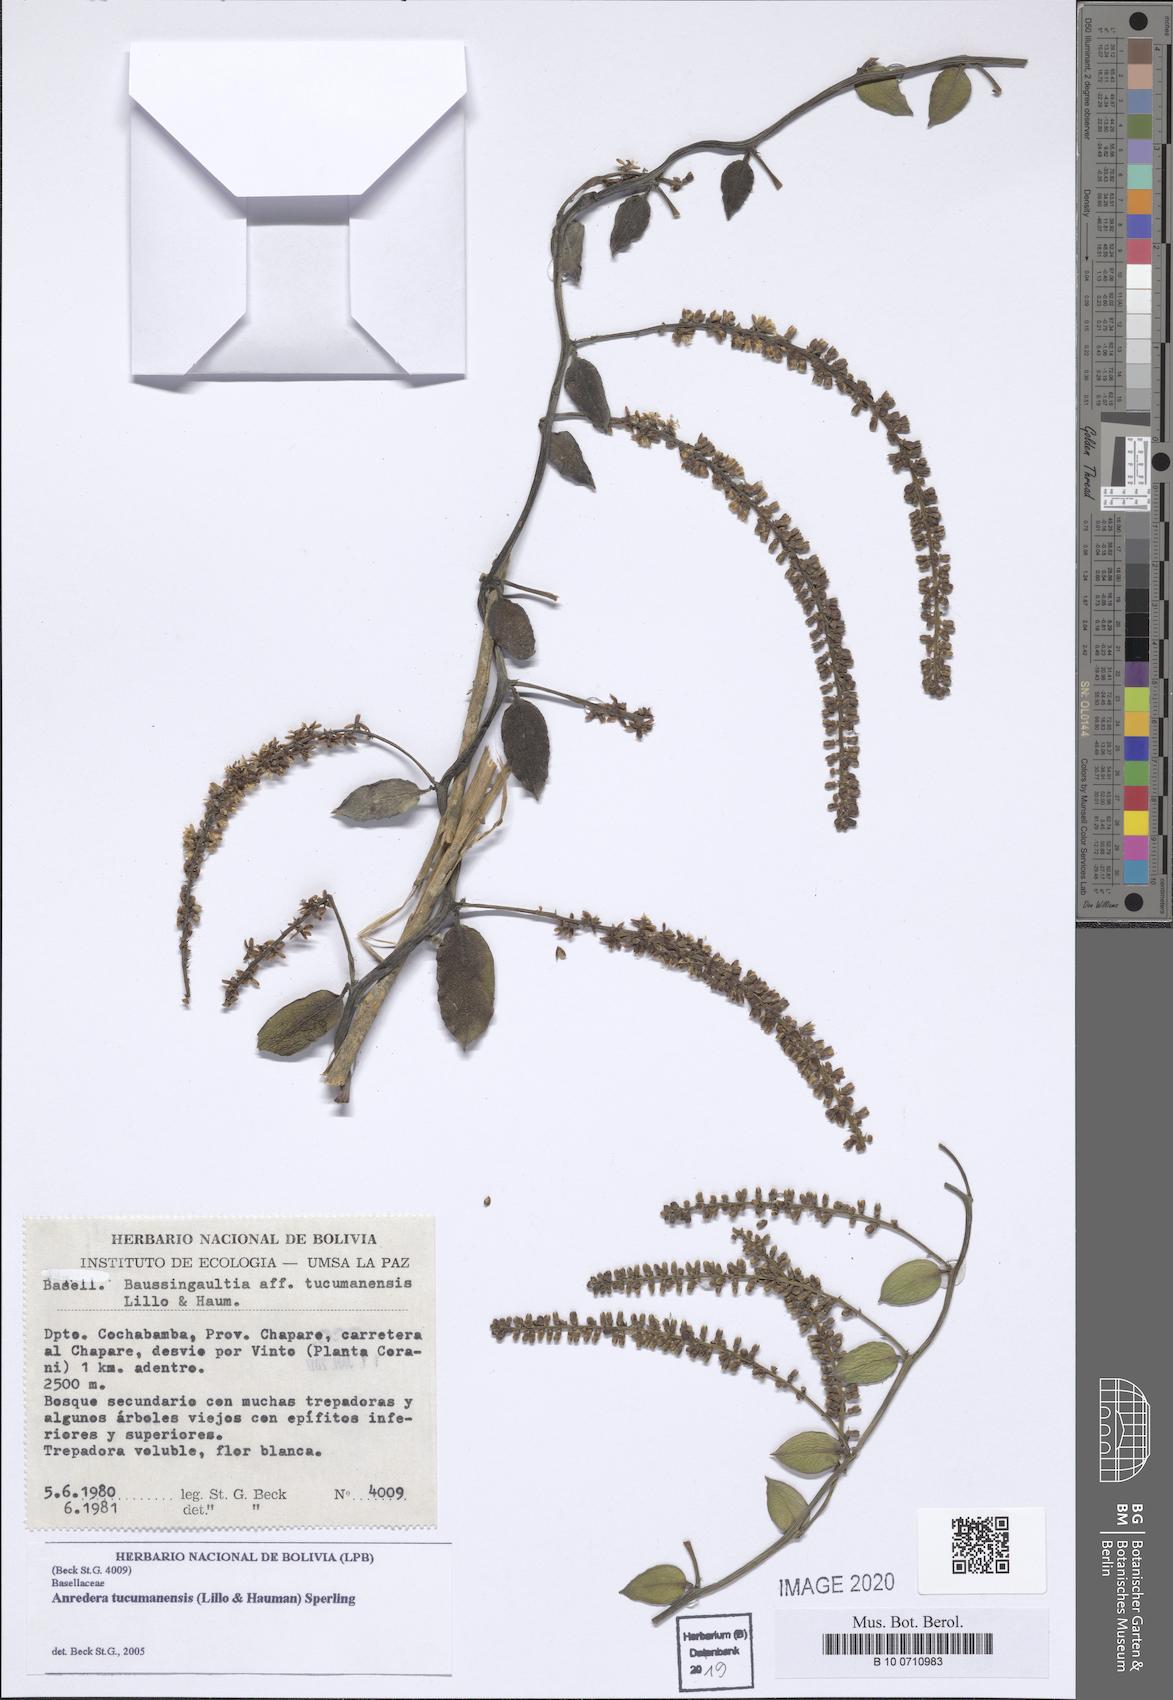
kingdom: Plantae
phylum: Tracheophyta
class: Magnoliopsida
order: Caryophyllales
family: Basellaceae
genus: Anredera
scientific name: Anredera tucumanensis
